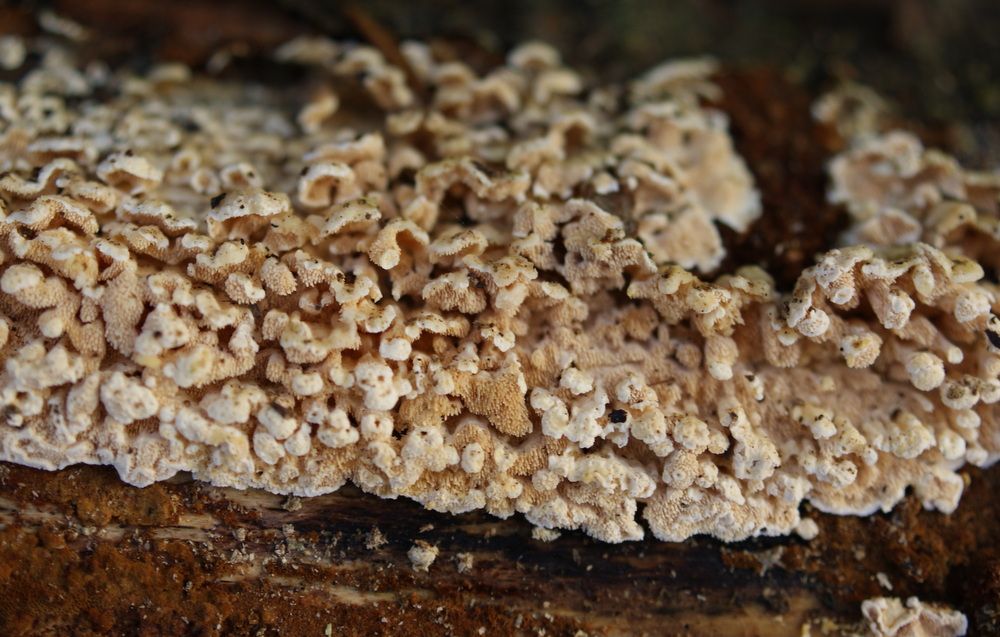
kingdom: Fungi
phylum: Basidiomycota
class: Agaricomycetes
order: Polyporales
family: Steccherinaceae
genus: Steccherinum
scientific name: Steccherinum ochraceum
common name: almindelig skønpig
